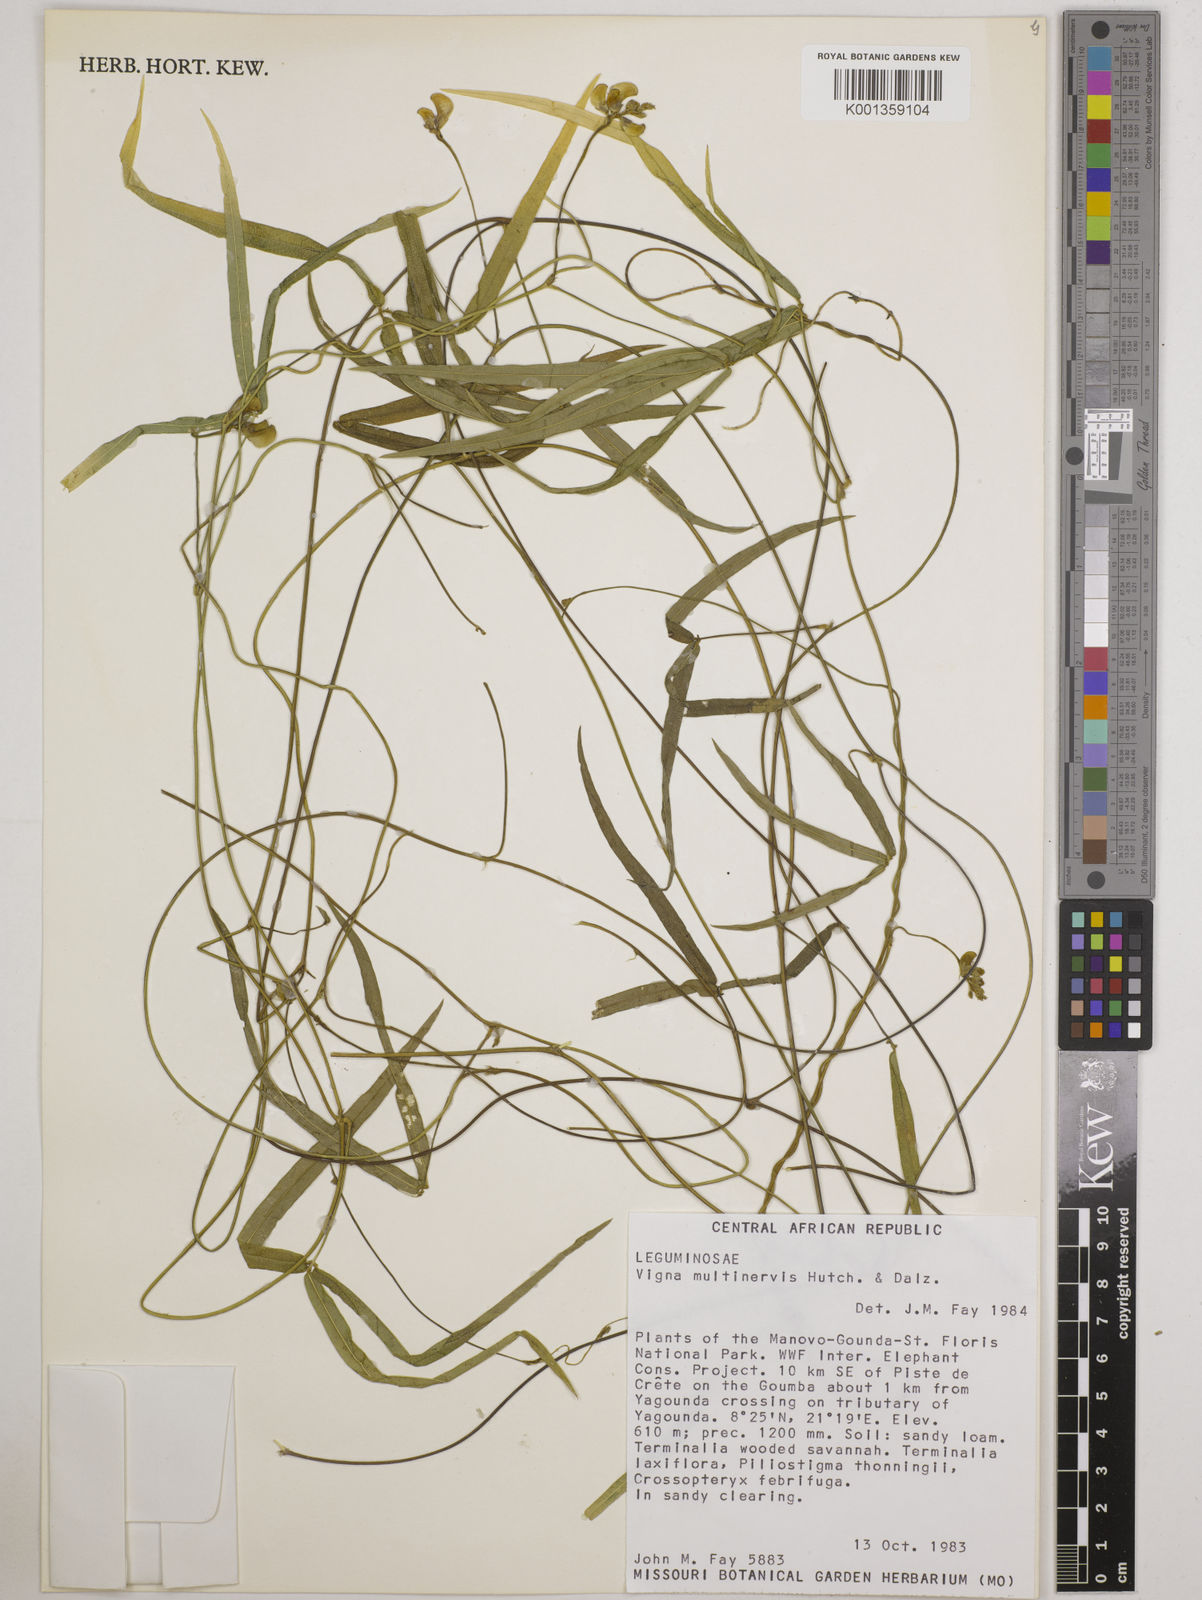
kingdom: Plantae
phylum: Tracheophyta
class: Magnoliopsida
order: Fabales
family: Fabaceae
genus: Vigna
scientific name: Vigna multinervis
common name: Fula-pulaar
